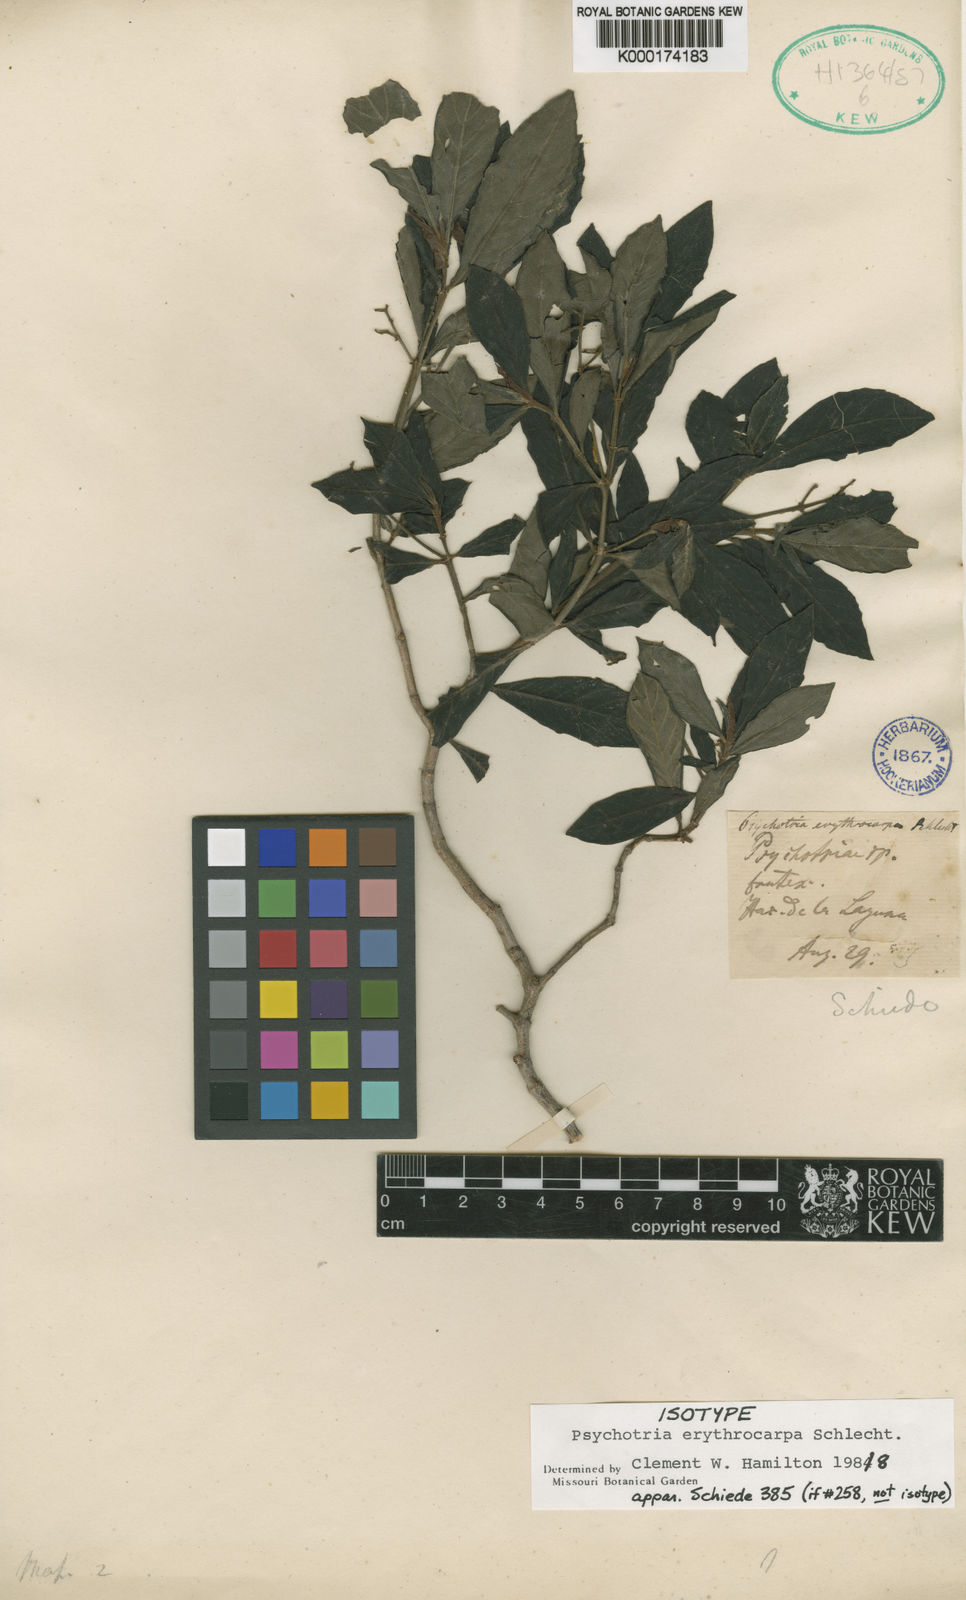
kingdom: Plantae
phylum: Tracheophyta
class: Magnoliopsida
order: Gentianales
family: Rubiaceae
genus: Psychotria
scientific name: Psychotria erythrocarpa
